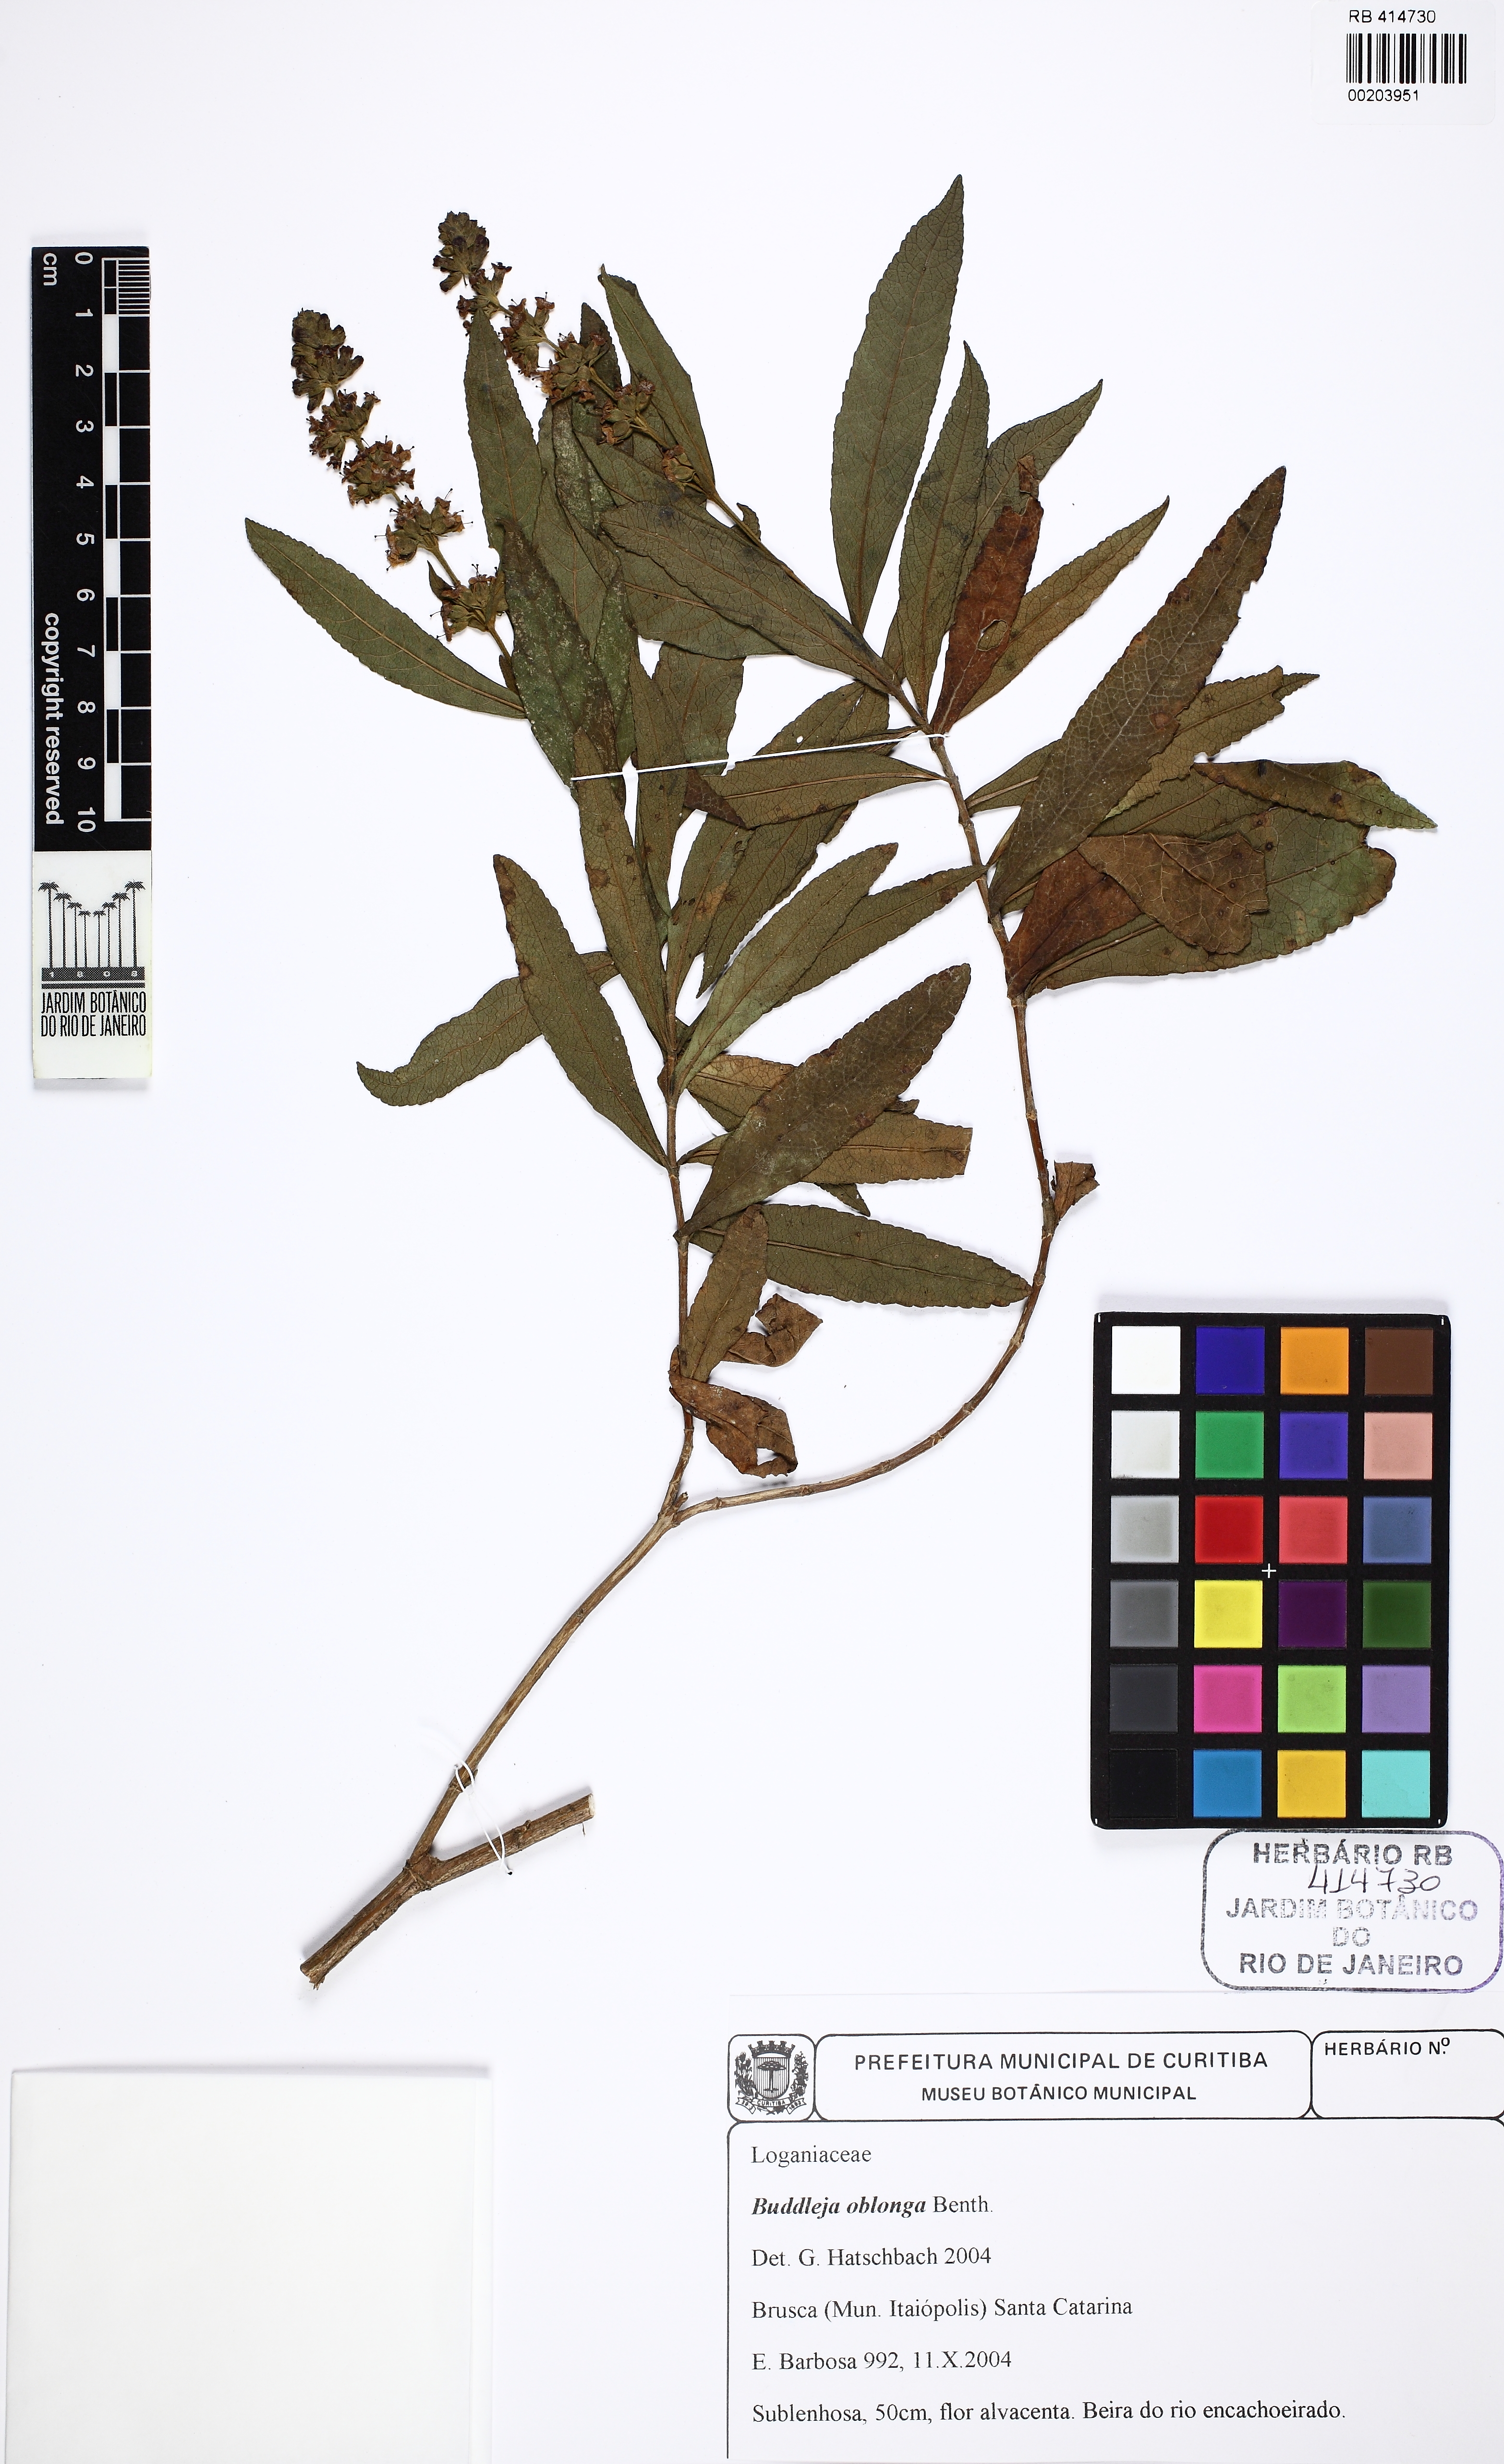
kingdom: Plantae
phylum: Tracheophyta
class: Magnoliopsida
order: Lamiales
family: Scrophulariaceae
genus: Buddleja
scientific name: Buddleja oblonga
